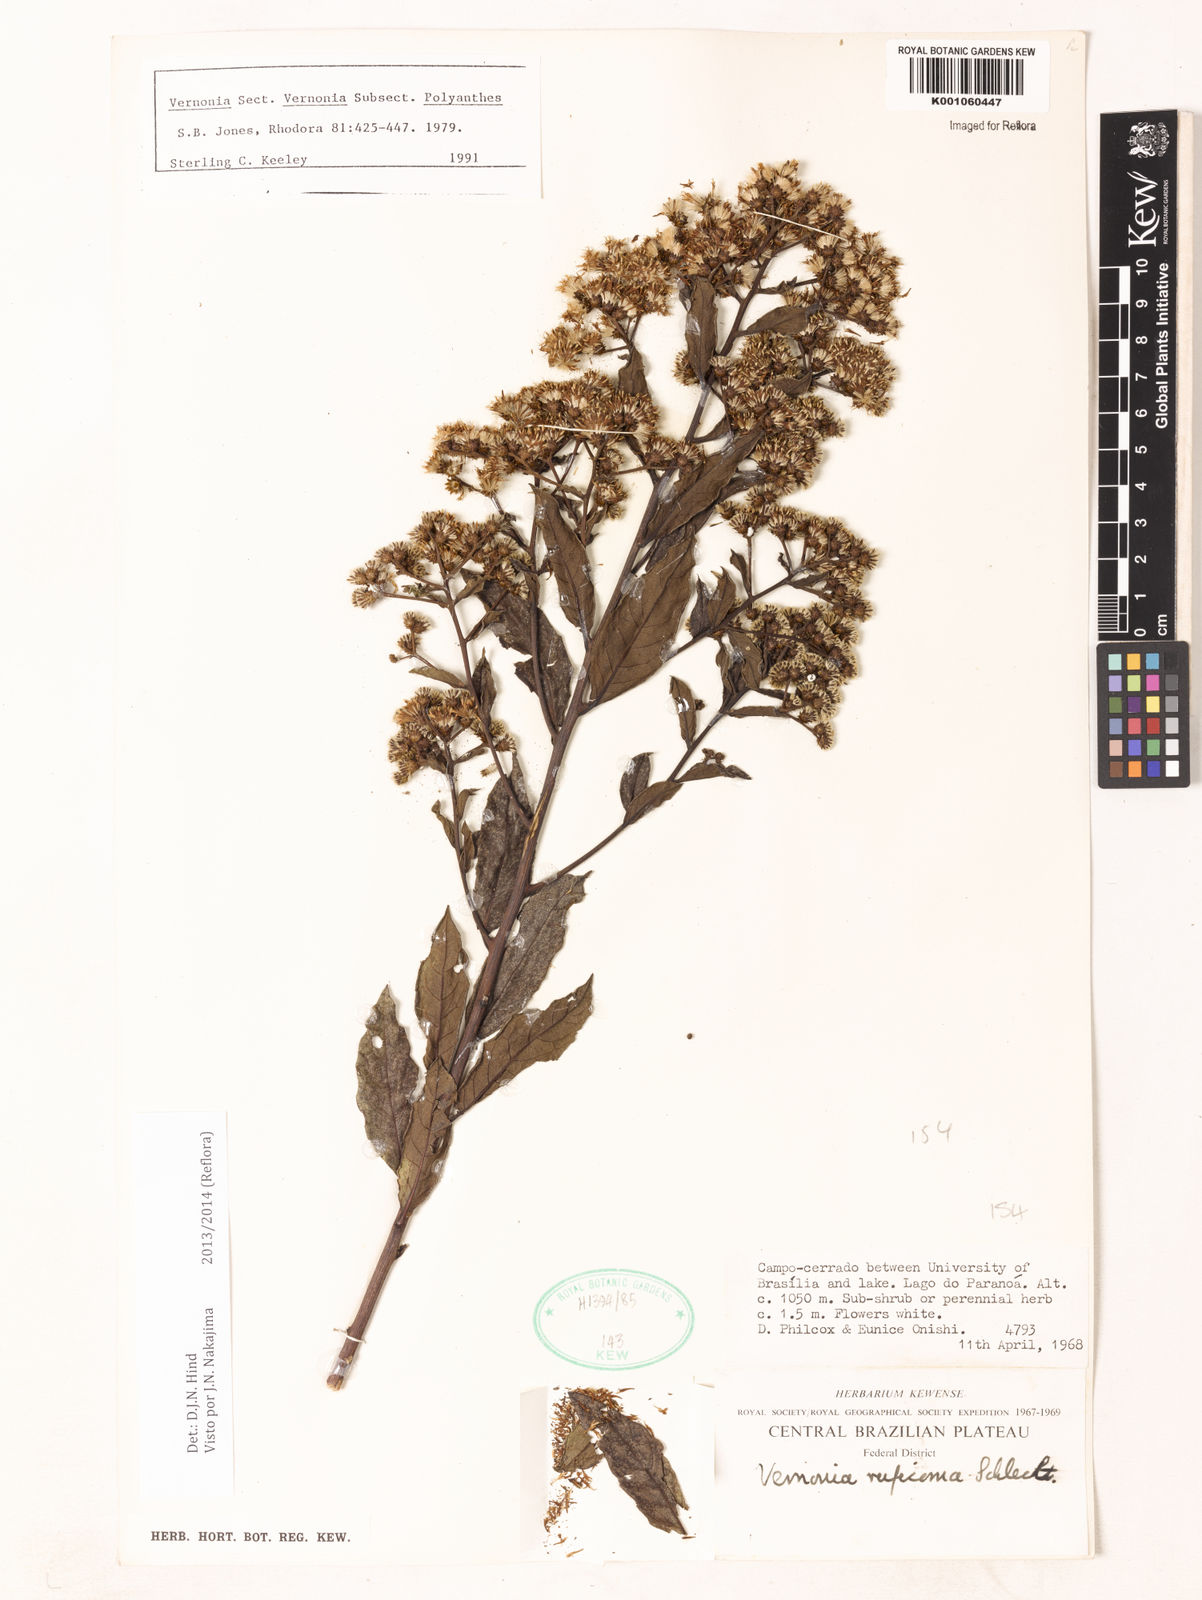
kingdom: Plantae
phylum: Tracheophyta
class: Magnoliopsida
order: Asterales
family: Asteraceae
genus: Vernonia
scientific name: Vernonia
